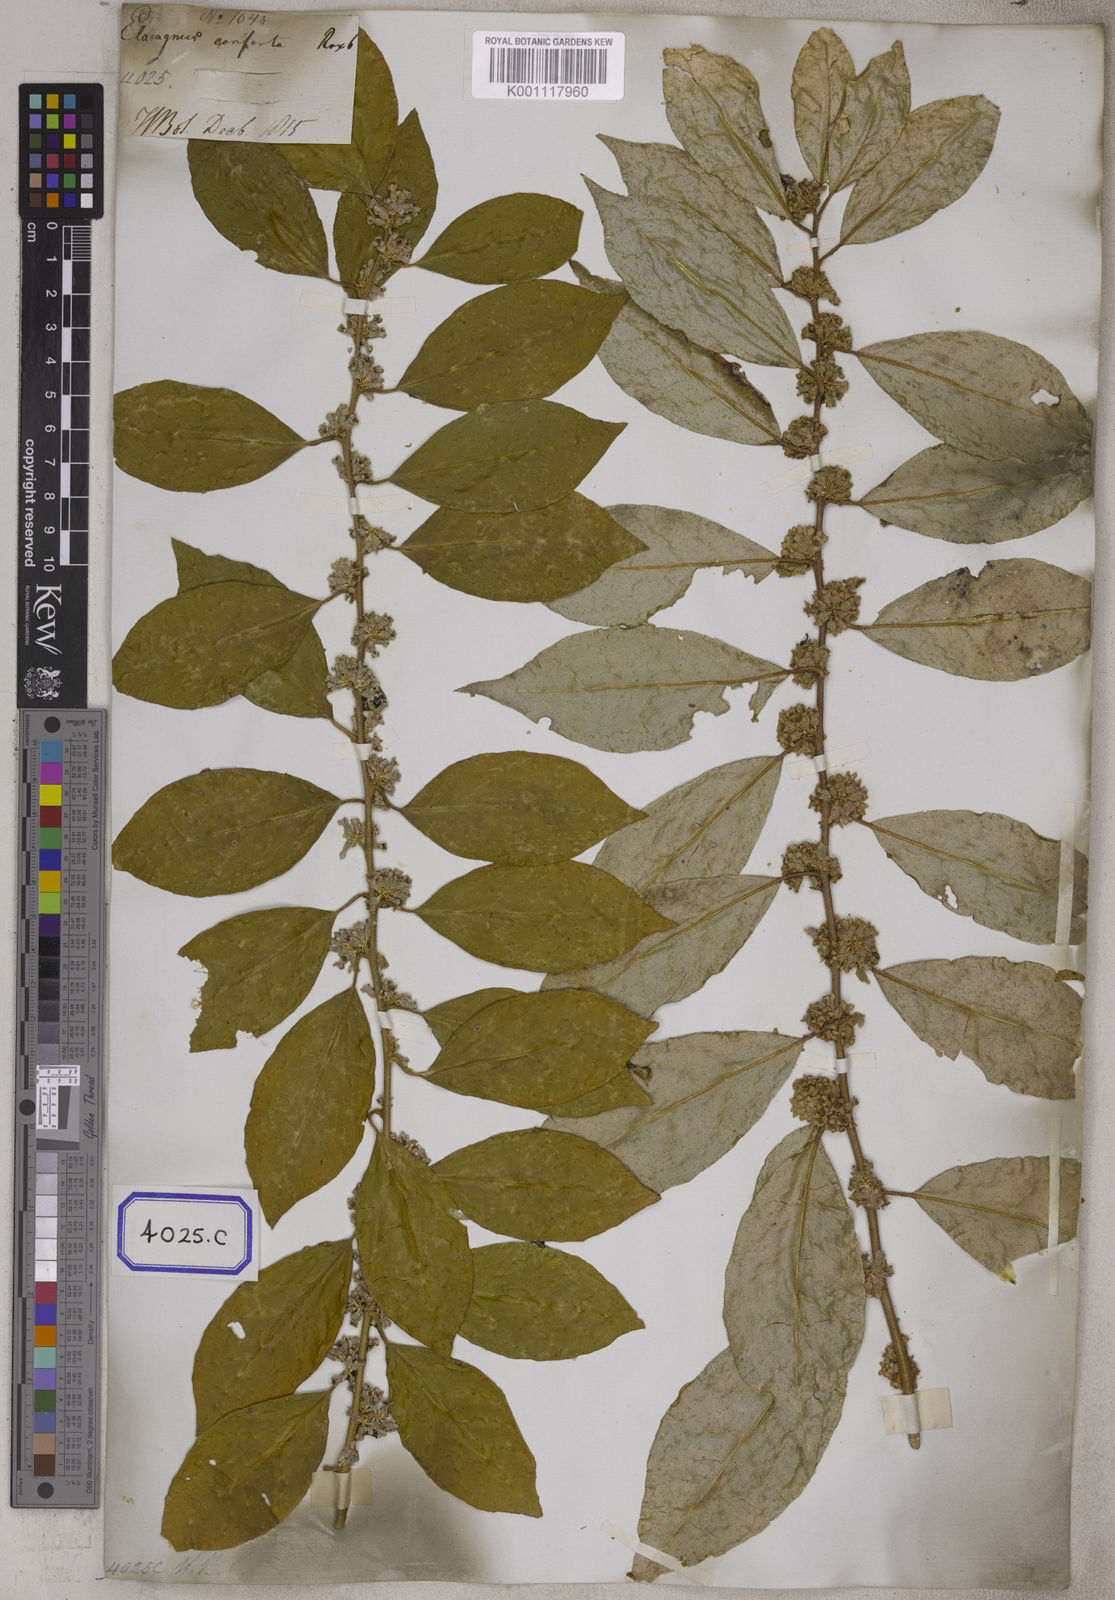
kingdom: Plantae
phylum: Tracheophyta
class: Magnoliopsida
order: Rosales
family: Elaeagnaceae
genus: Elaeagnus
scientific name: Elaeagnus conferta
